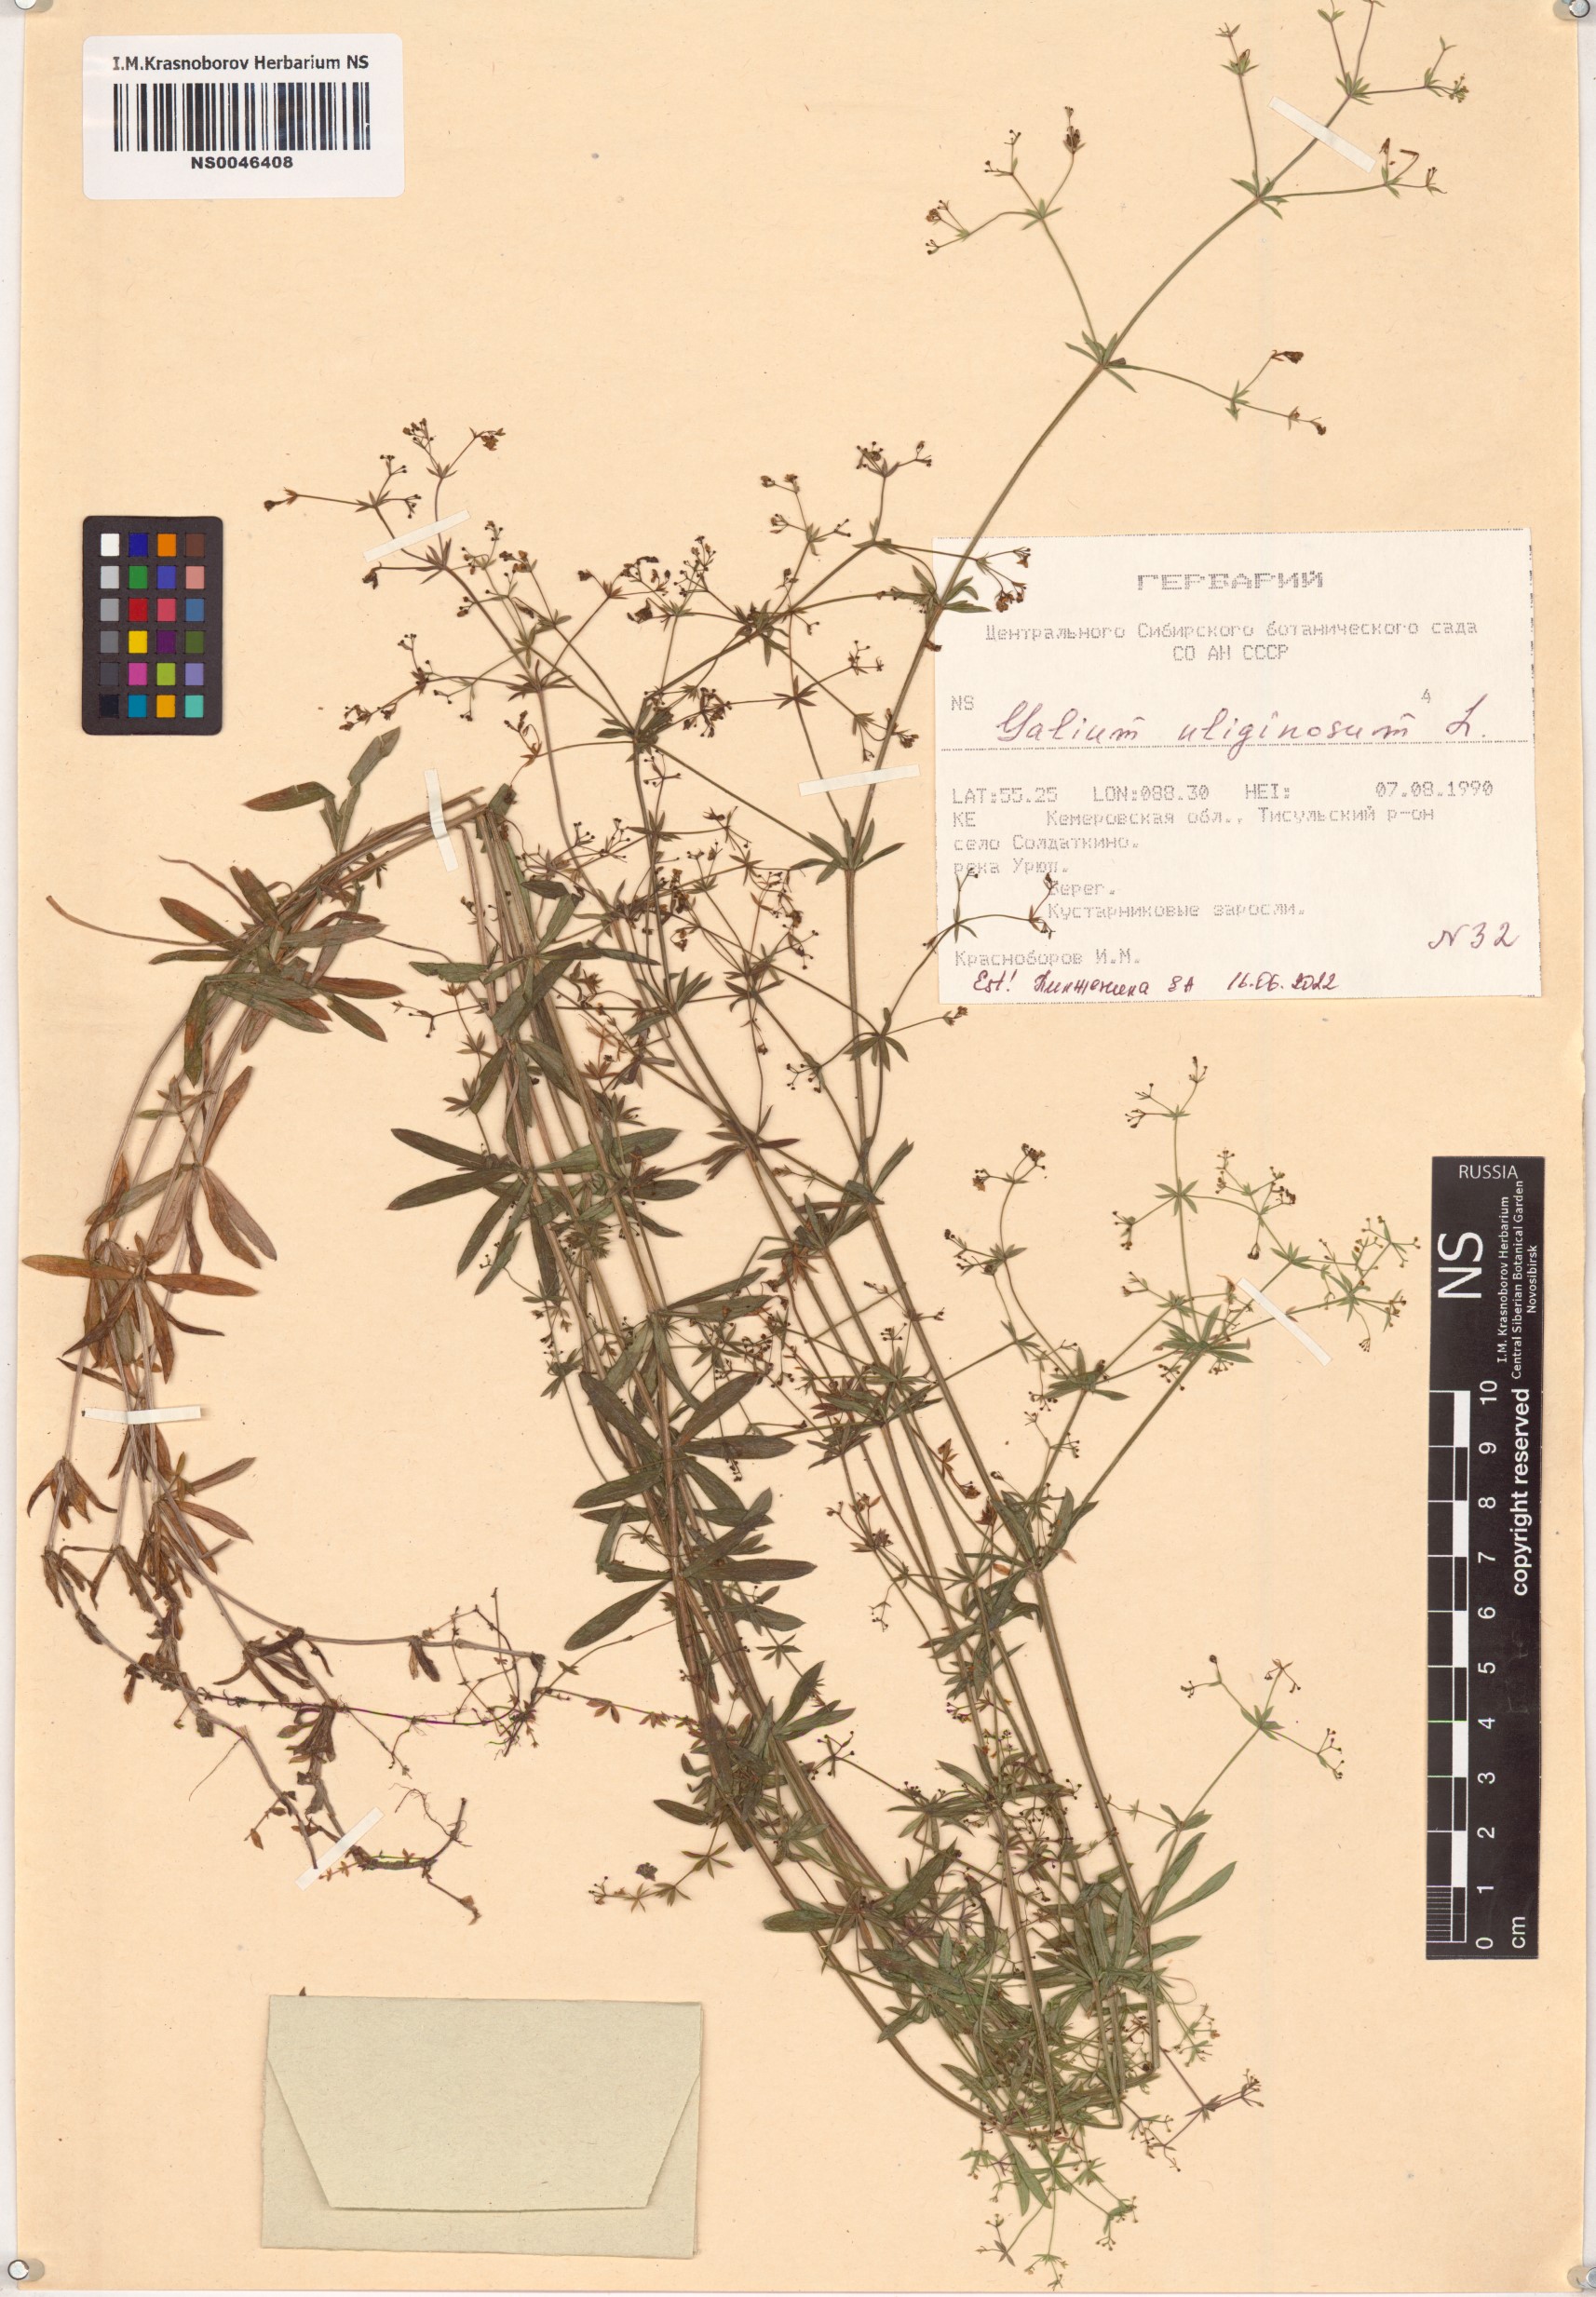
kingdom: Plantae
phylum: Tracheophyta
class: Magnoliopsida
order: Gentianales
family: Rubiaceae
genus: Galium
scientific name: Galium uliginosum
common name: Fen bedstraw
